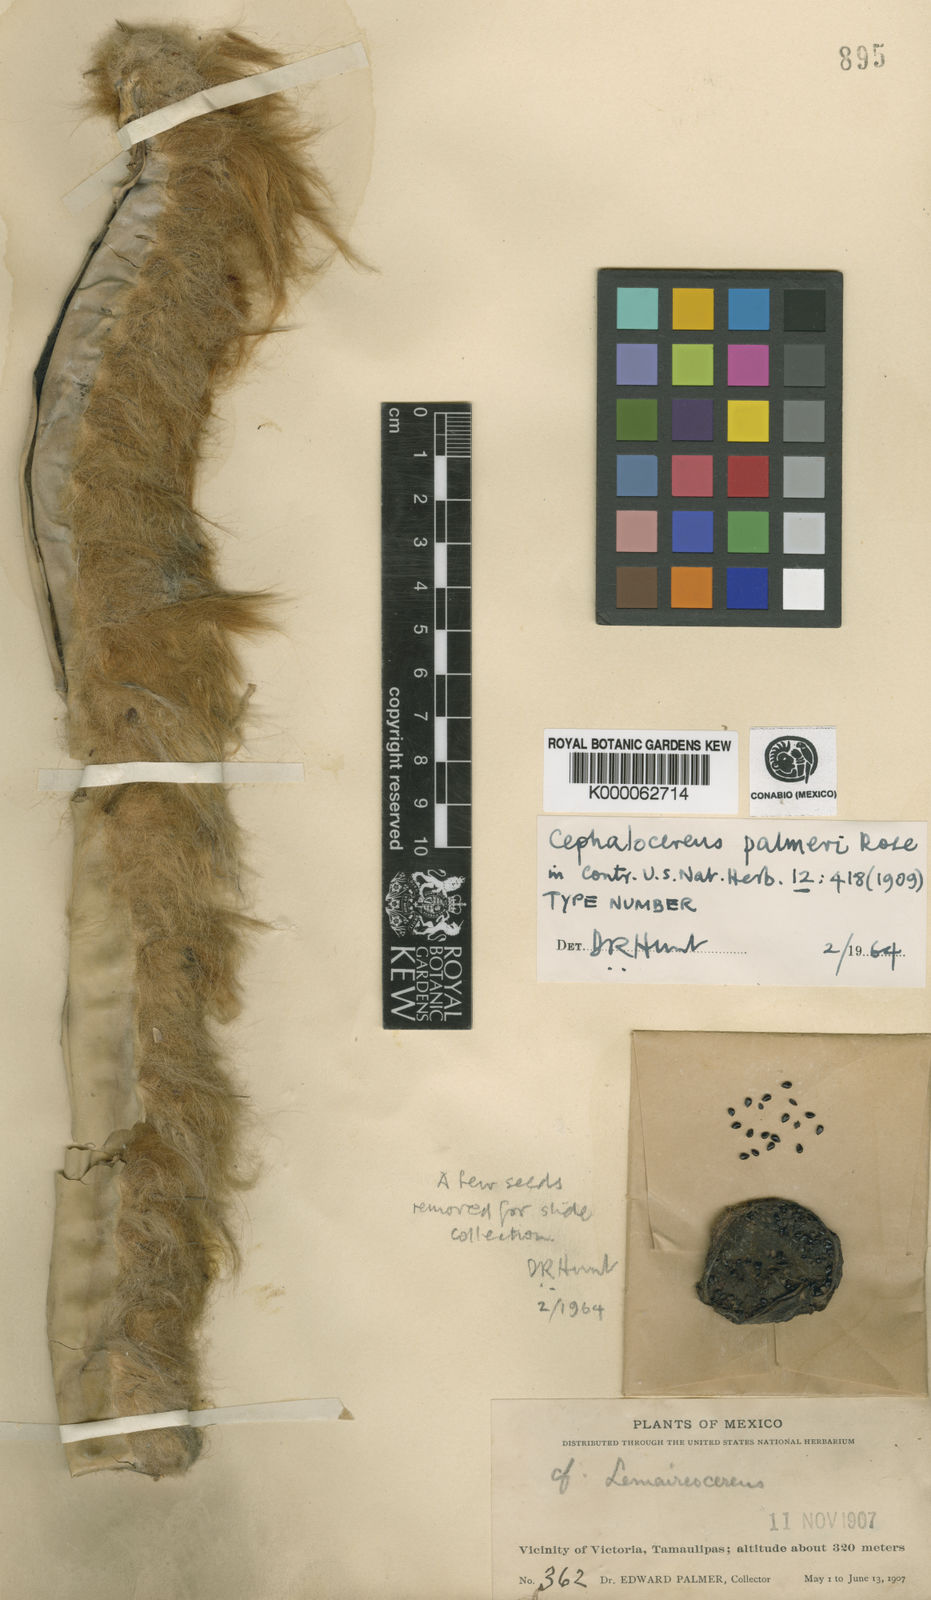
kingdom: Plantae
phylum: Tracheophyta
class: Magnoliopsida
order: Caryophyllales
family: Cactaceae
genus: Pilosocereus
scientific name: Pilosocereus leucocephalus
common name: Old man cactus
